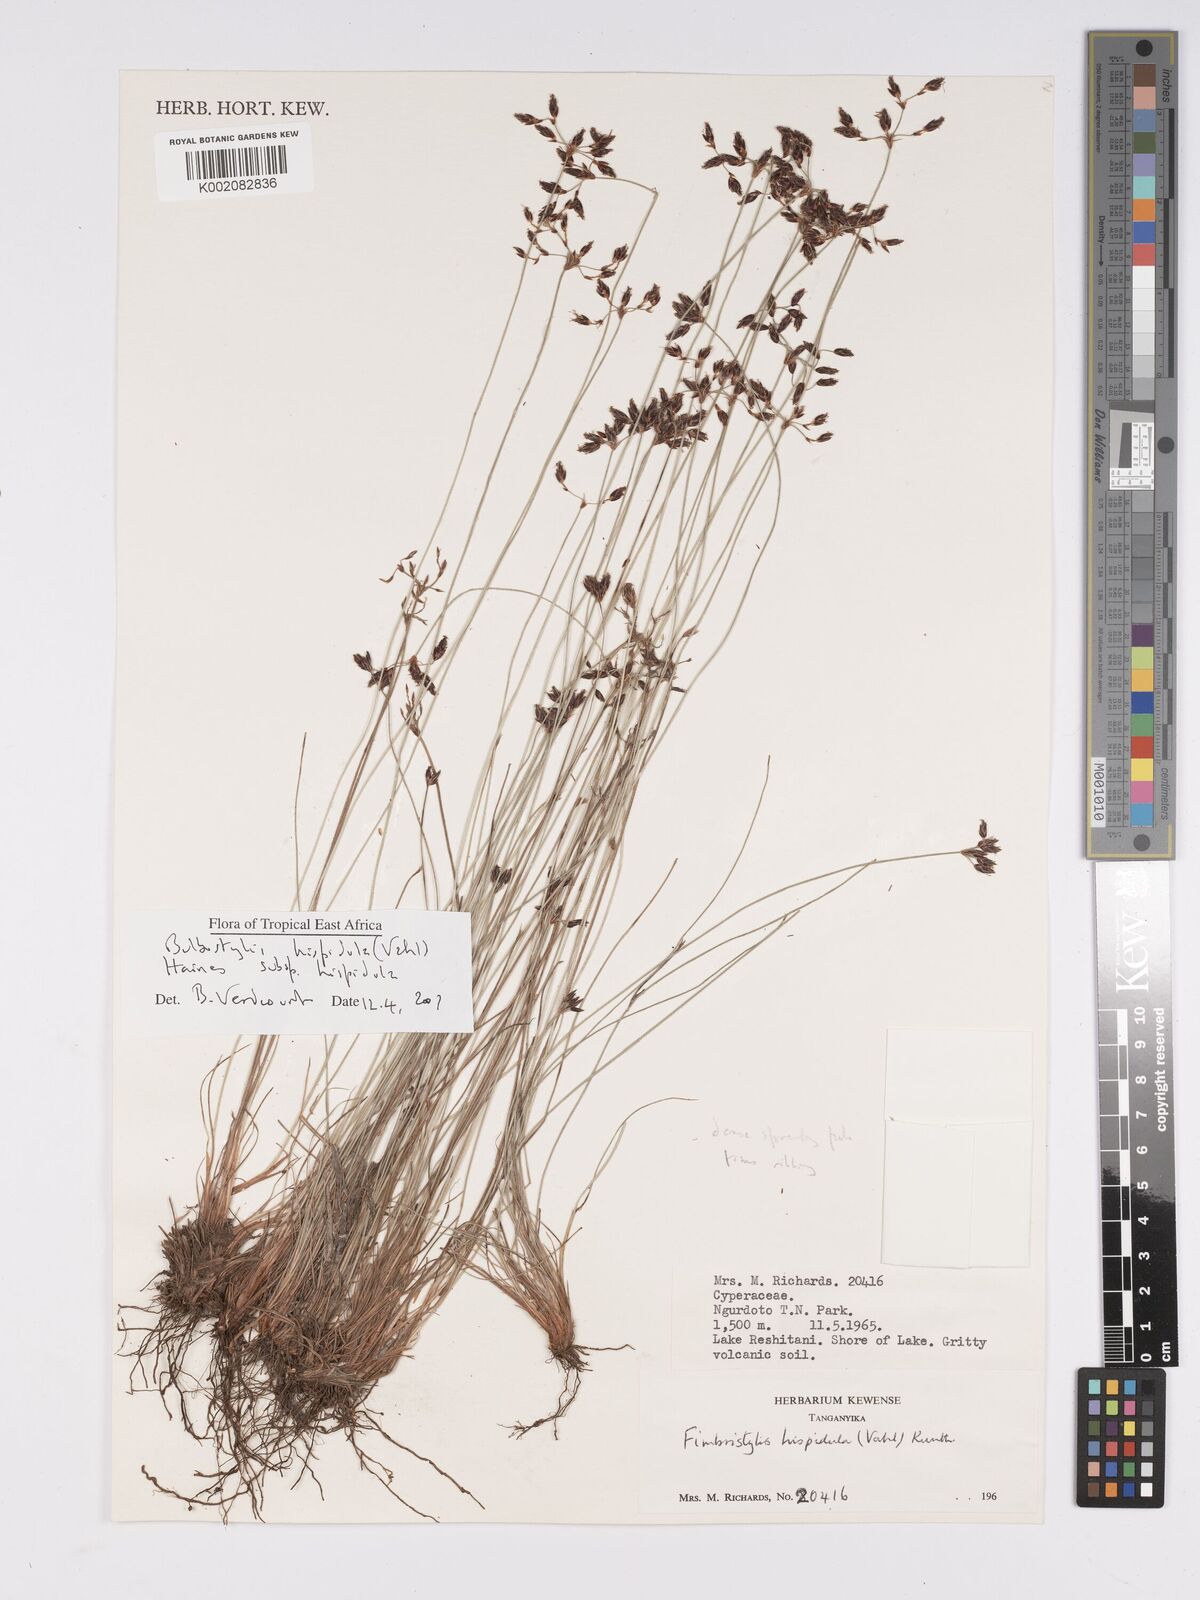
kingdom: Plantae
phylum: Tracheophyta
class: Liliopsida
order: Poales
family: Cyperaceae
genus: Bulbostylis
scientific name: Bulbostylis hispidula
